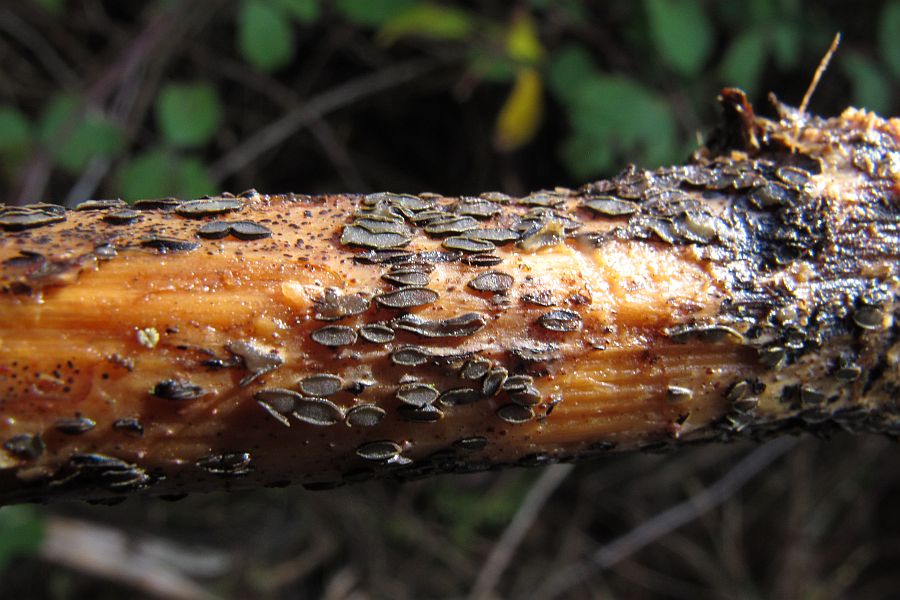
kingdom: Fungi
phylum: Ascomycota
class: Leotiomycetes
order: Rhytismatales
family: Rhytismataceae
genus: Hypoderma
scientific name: Hypoderma rubi
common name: brombær-fureplet
